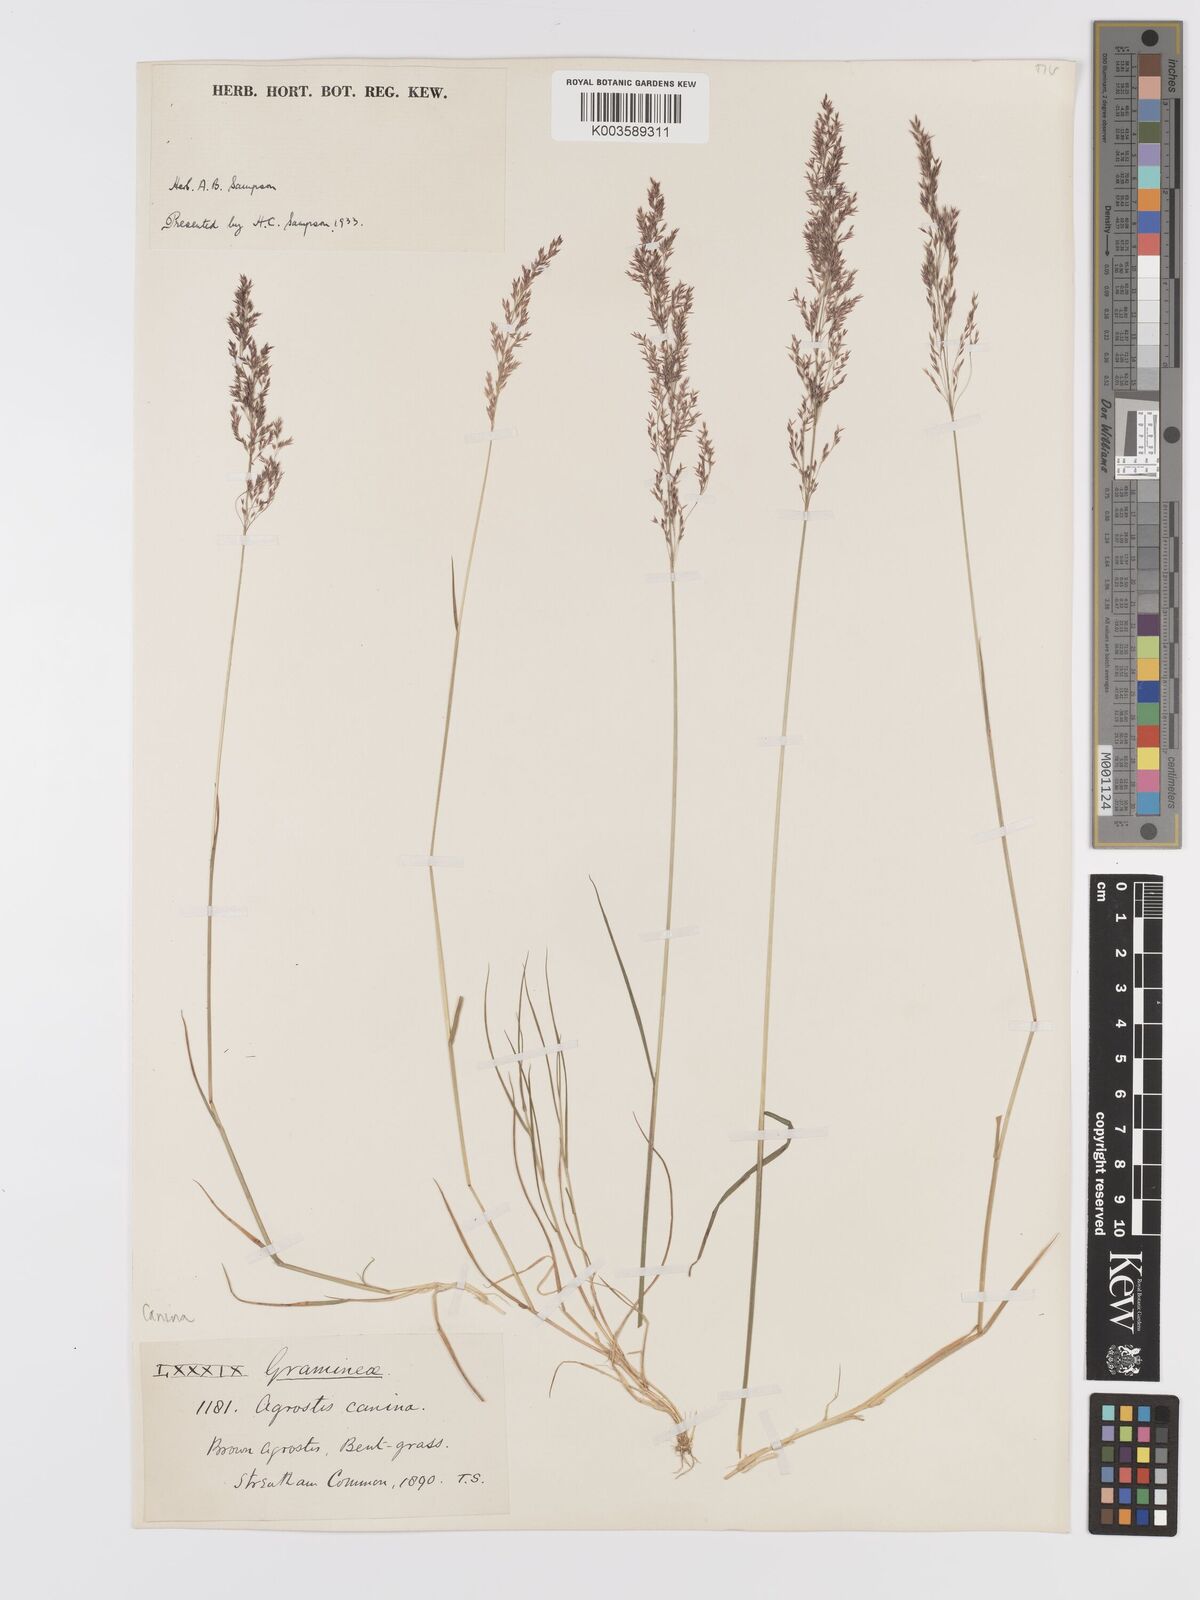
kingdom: Plantae
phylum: Tracheophyta
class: Liliopsida
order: Poales
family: Poaceae
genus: Agrostis
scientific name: Agrostis canina
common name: Velvet bent
